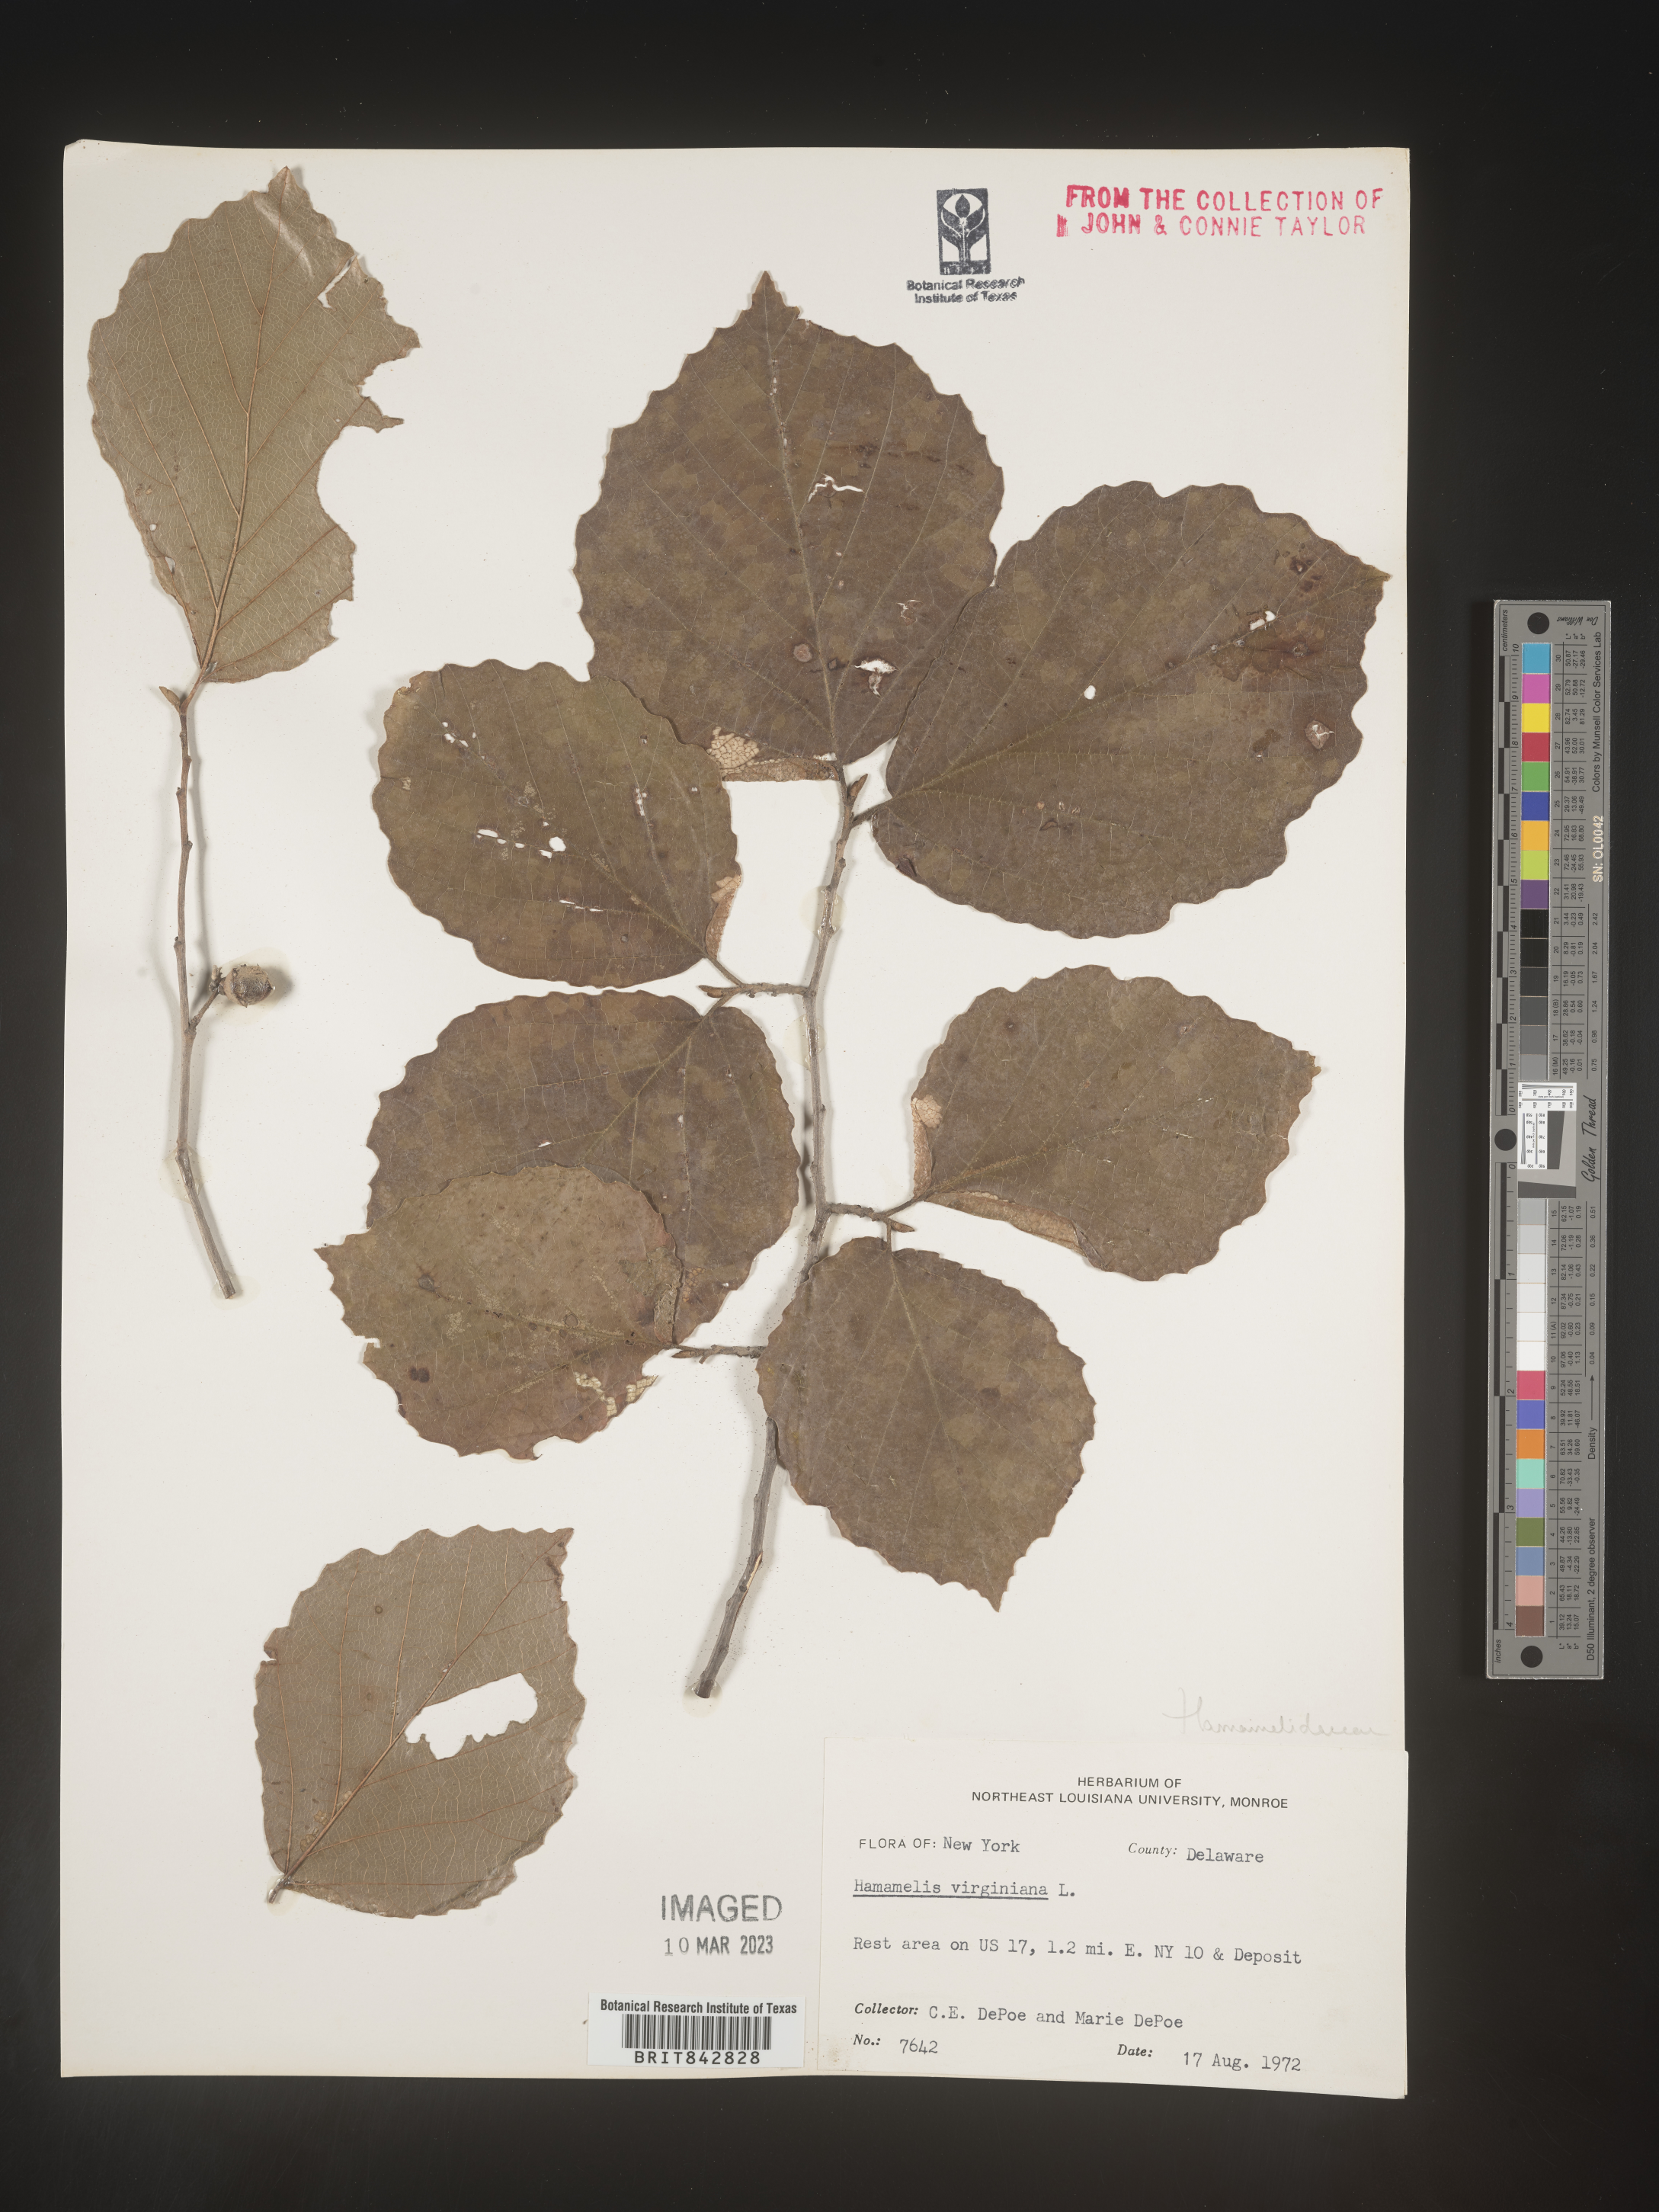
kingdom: Plantae
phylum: Tracheophyta
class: Magnoliopsida
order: Saxifragales
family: Hamamelidaceae
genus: Hamamelis
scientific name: Hamamelis virginiana
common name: Witch-hazel
